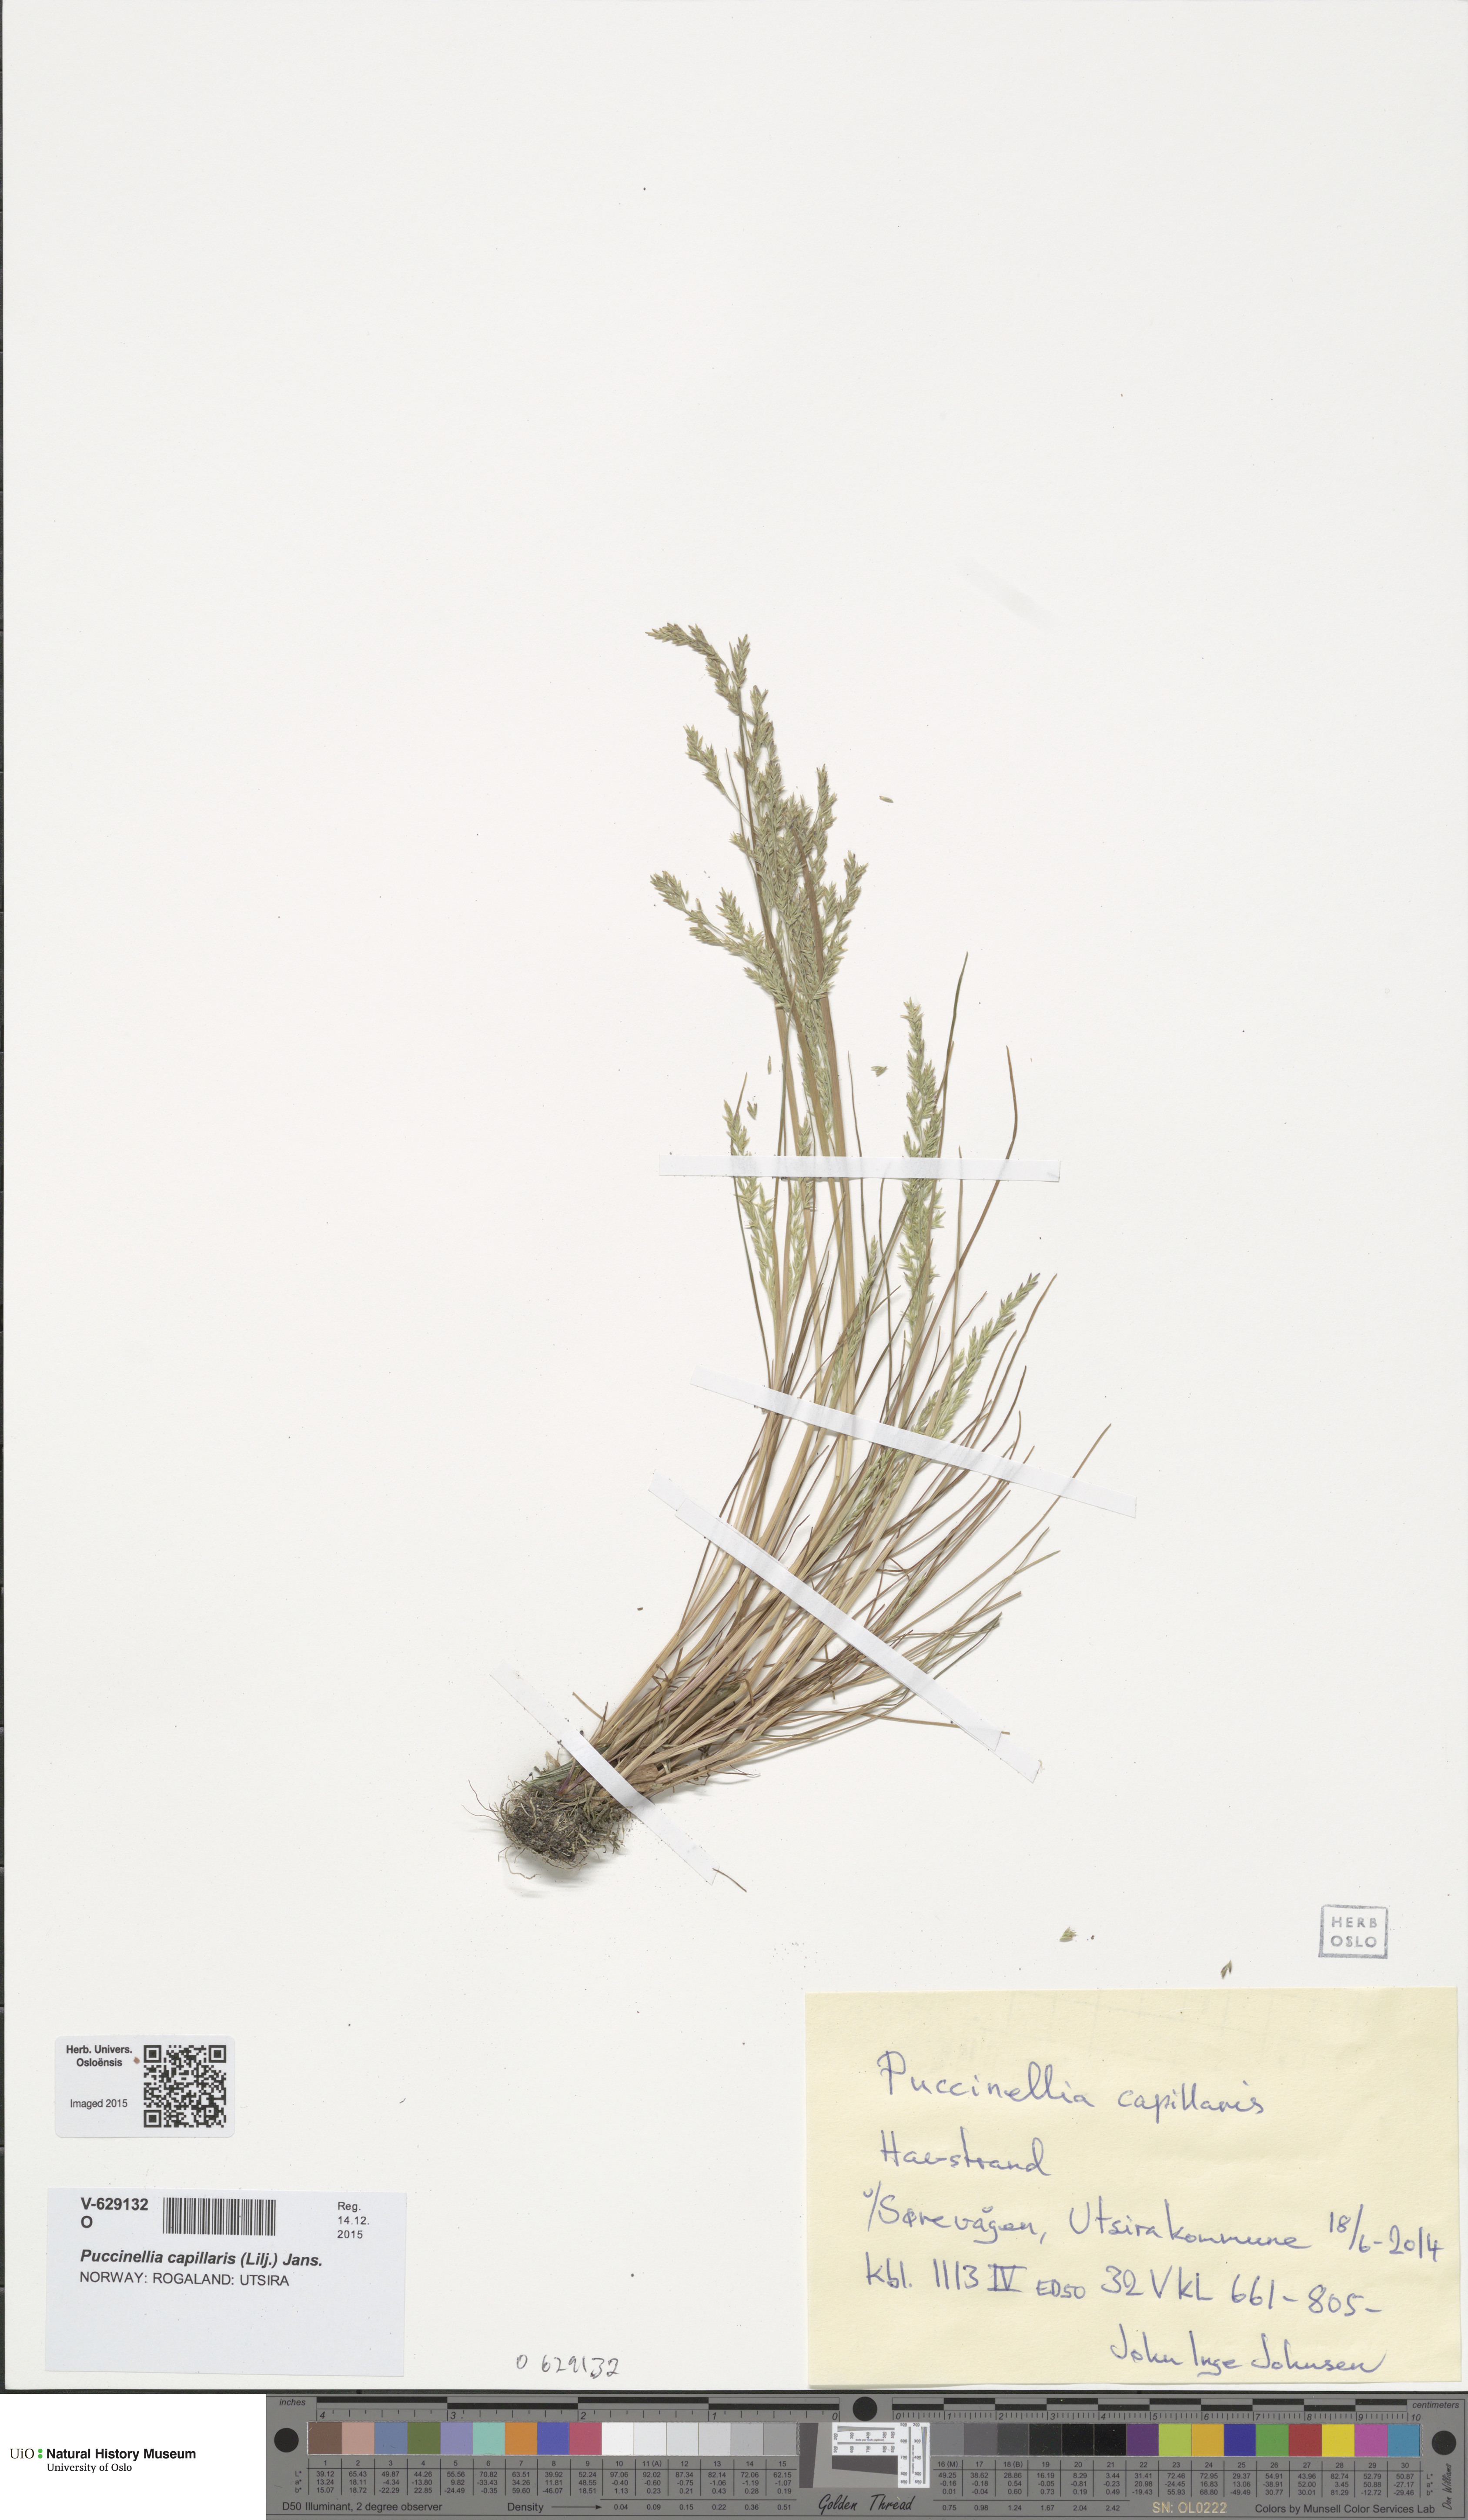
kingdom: Plantae
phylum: Tracheophyta
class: Liliopsida
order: Poales
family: Poaceae
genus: Puccinellia
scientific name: Puccinellia distans
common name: Weeping alkaligrass
